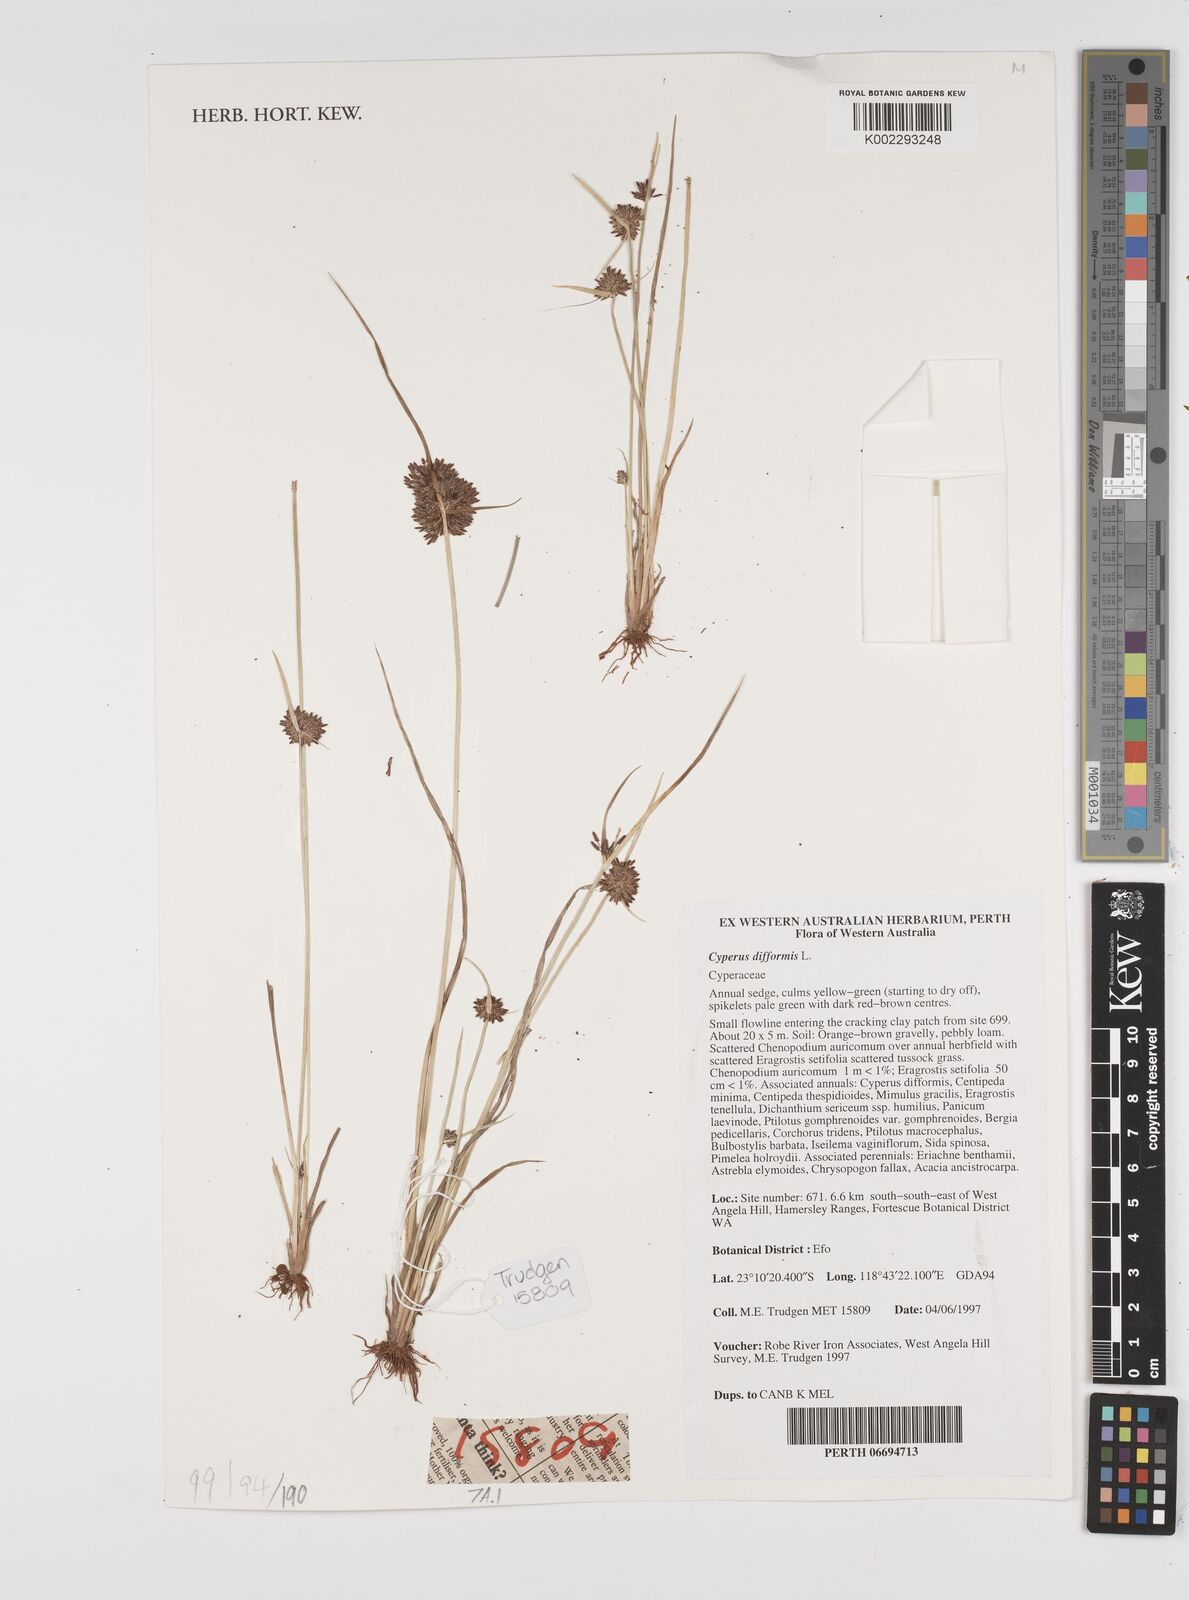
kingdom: Plantae
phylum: Tracheophyta
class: Liliopsida
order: Poales
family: Cyperaceae
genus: Cyperus
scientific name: Cyperus difformis
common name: Variable flatsedge
